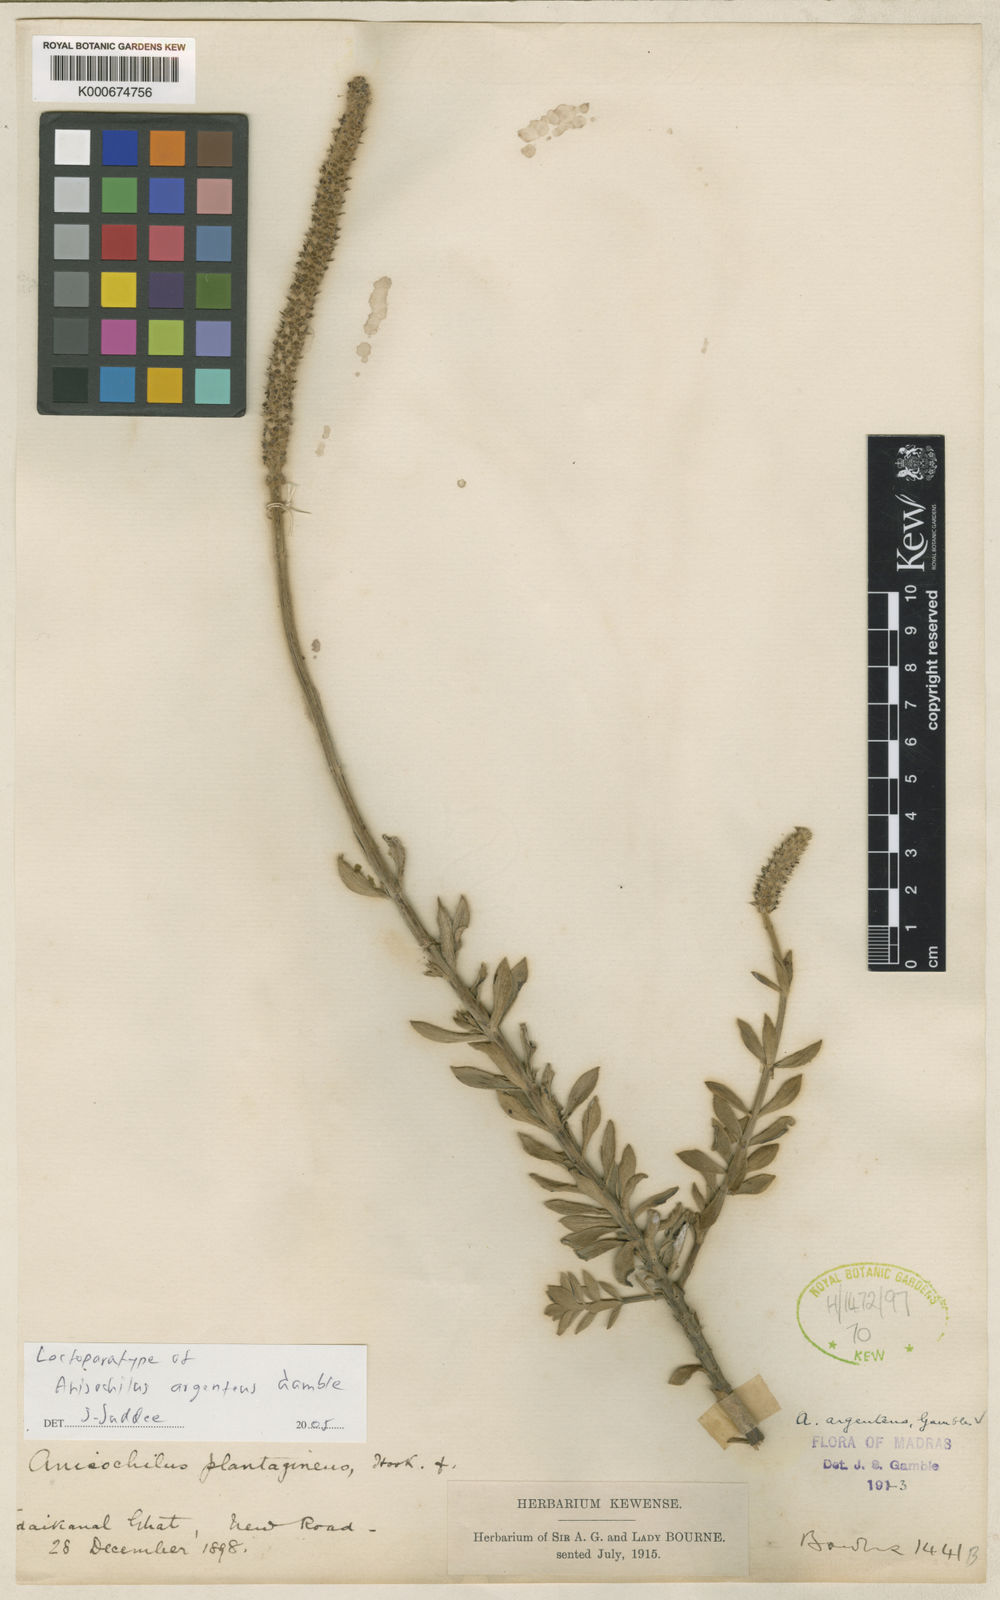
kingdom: Plantae
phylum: Tracheophyta
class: Magnoliopsida
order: Lamiales
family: Lamiaceae
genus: Coleus
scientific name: Coleus argenteus
